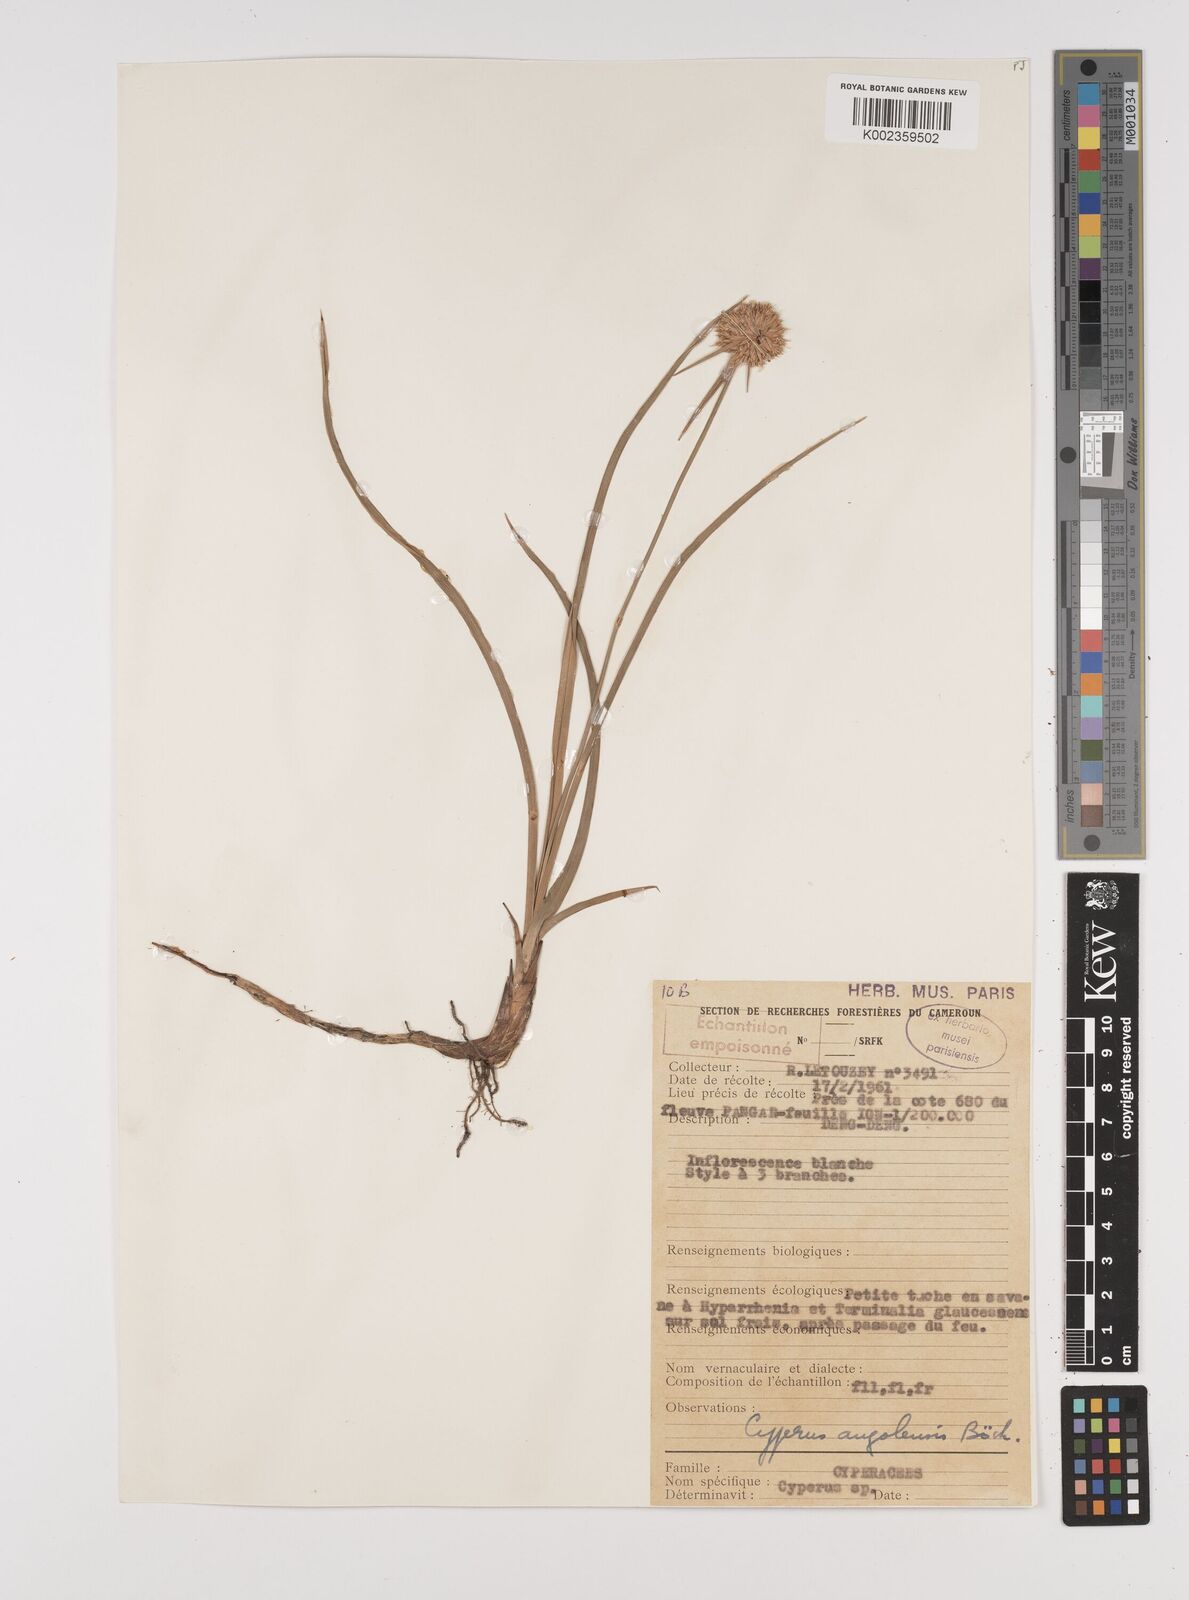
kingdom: Plantae
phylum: Tracheophyta
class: Liliopsida
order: Poales
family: Cyperaceae
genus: Cyperus
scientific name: Cyperus angolensis
